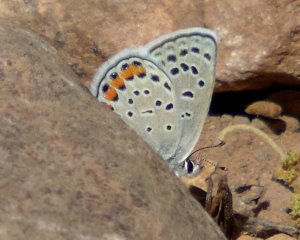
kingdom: Animalia
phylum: Arthropoda
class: Insecta
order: Lepidoptera
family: Lycaenidae
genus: Plebejus
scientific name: Plebejus acmon
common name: Acmon Blue
